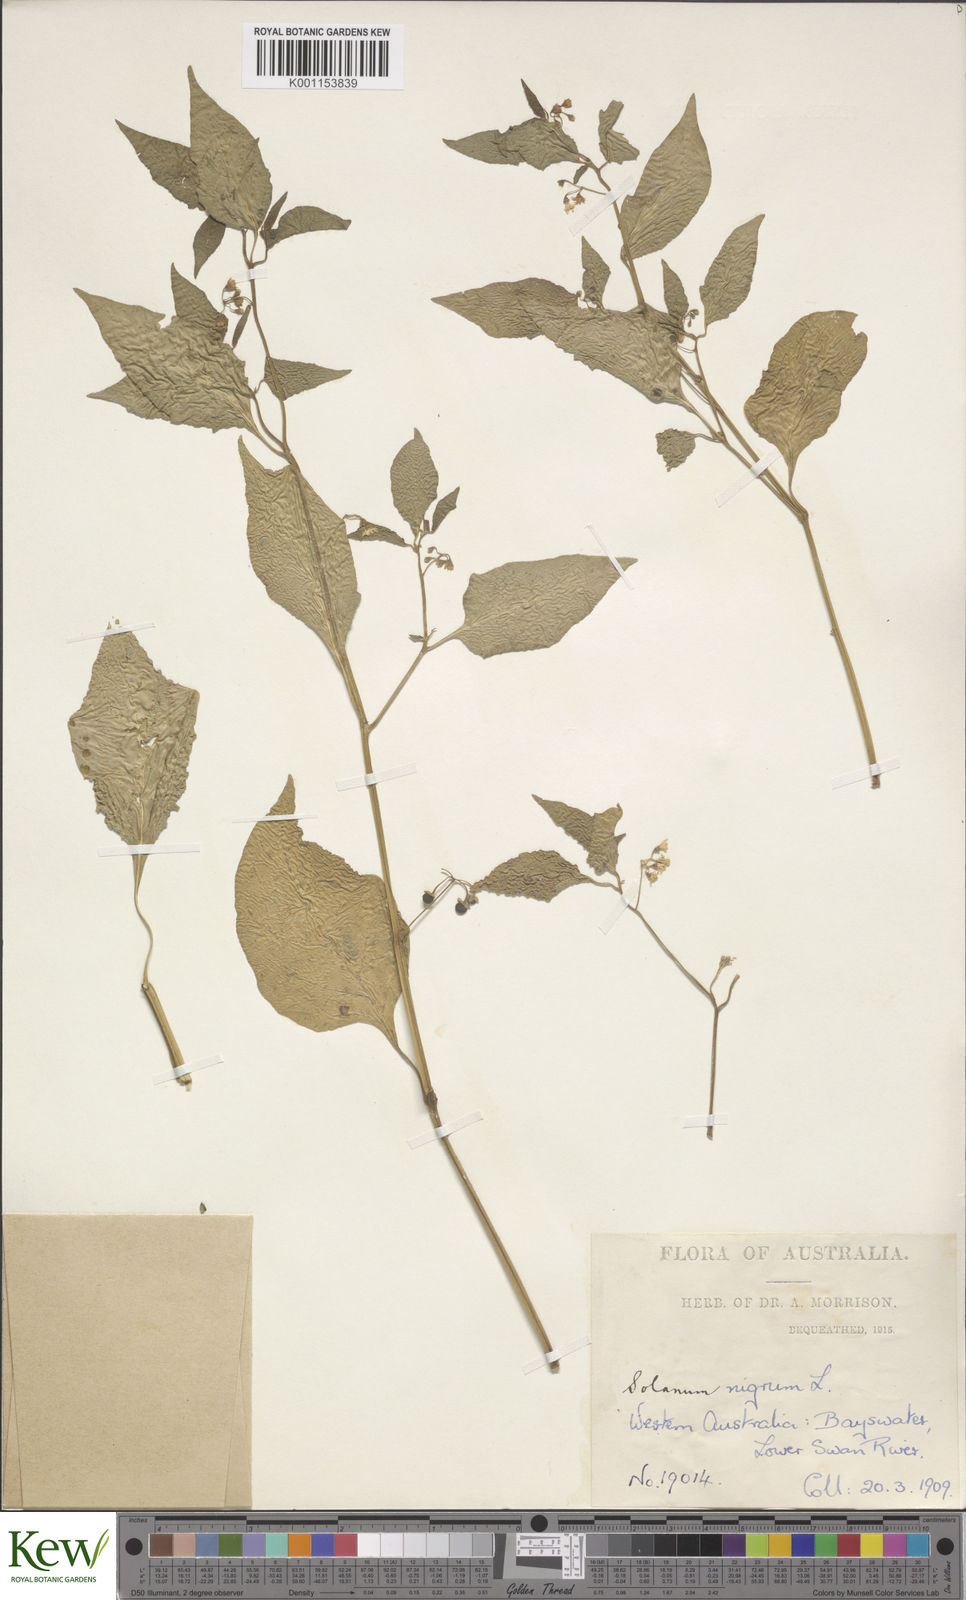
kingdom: Plantae
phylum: Tracheophyta
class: Magnoliopsida
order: Solanales
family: Solanaceae
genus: Solanum
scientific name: Solanum americanum
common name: American black nightshade
